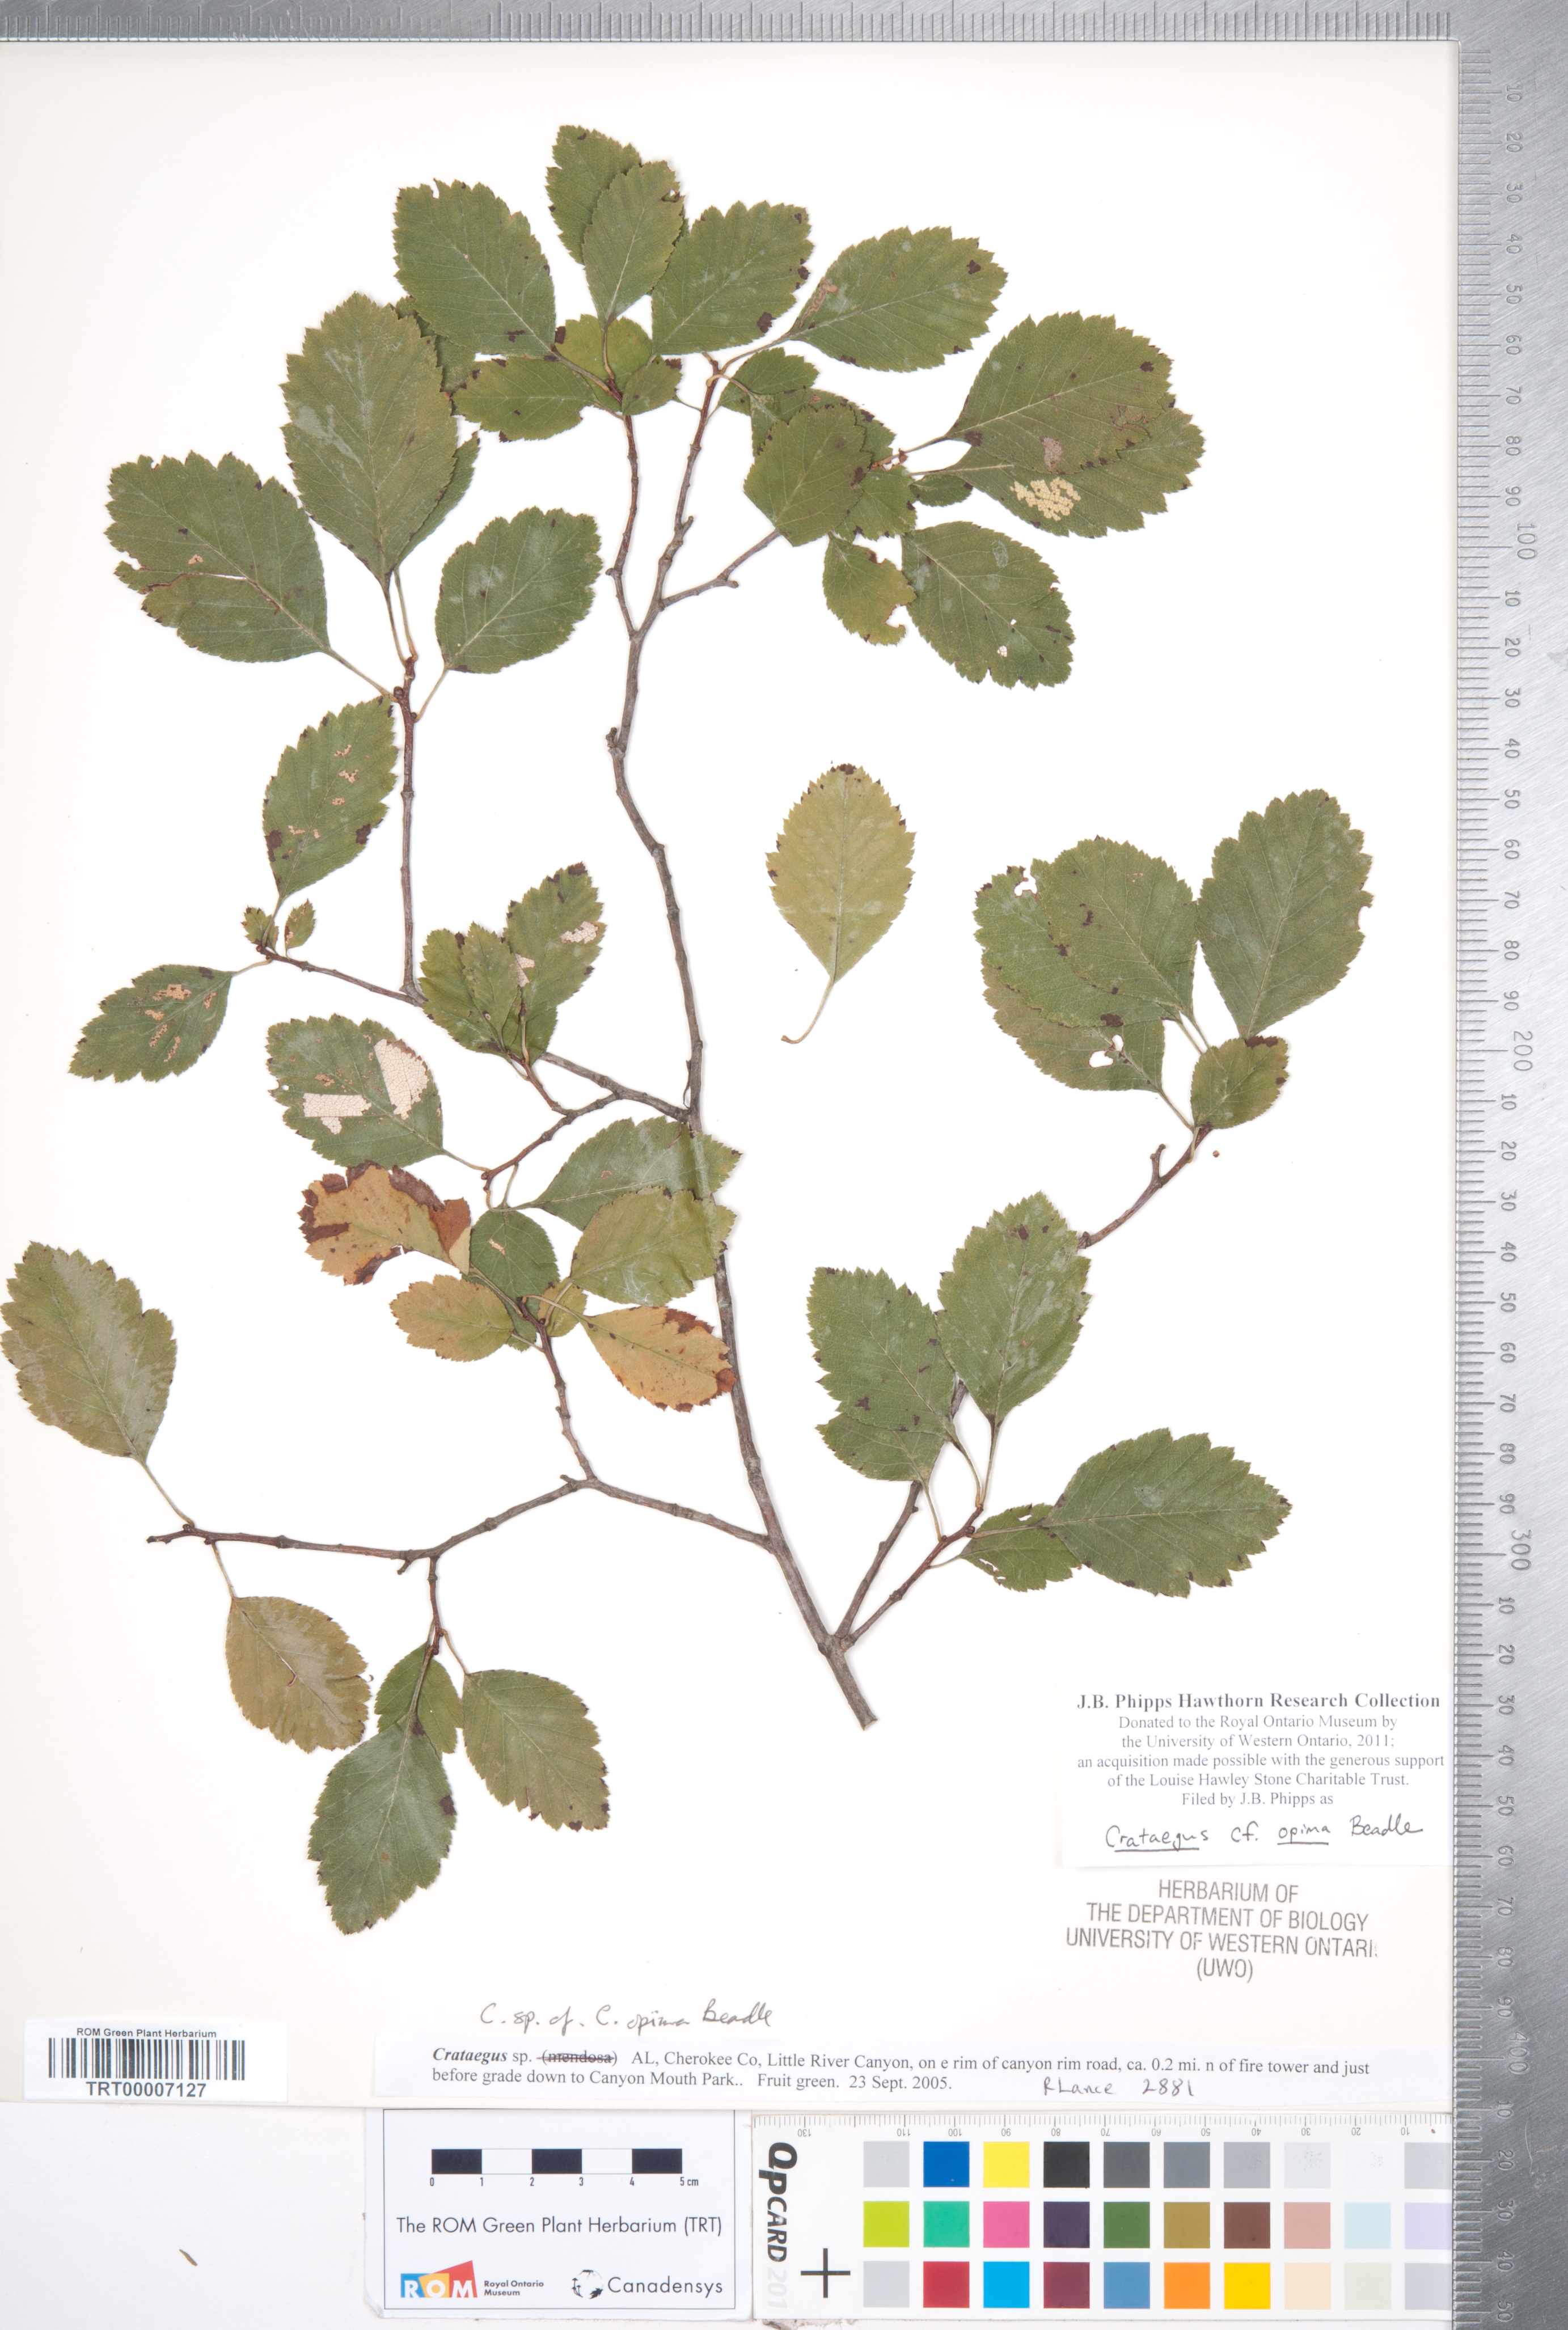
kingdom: Plantae
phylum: Tracheophyta
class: Magnoliopsida
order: Rosales
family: Rosaceae
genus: Crataegus
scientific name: Crataegus pulcherrima
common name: Beautiful hawthorn
